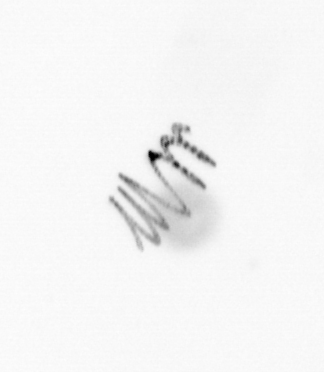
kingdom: Chromista
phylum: Ochrophyta
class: Bacillariophyceae
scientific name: Bacillariophyceae
